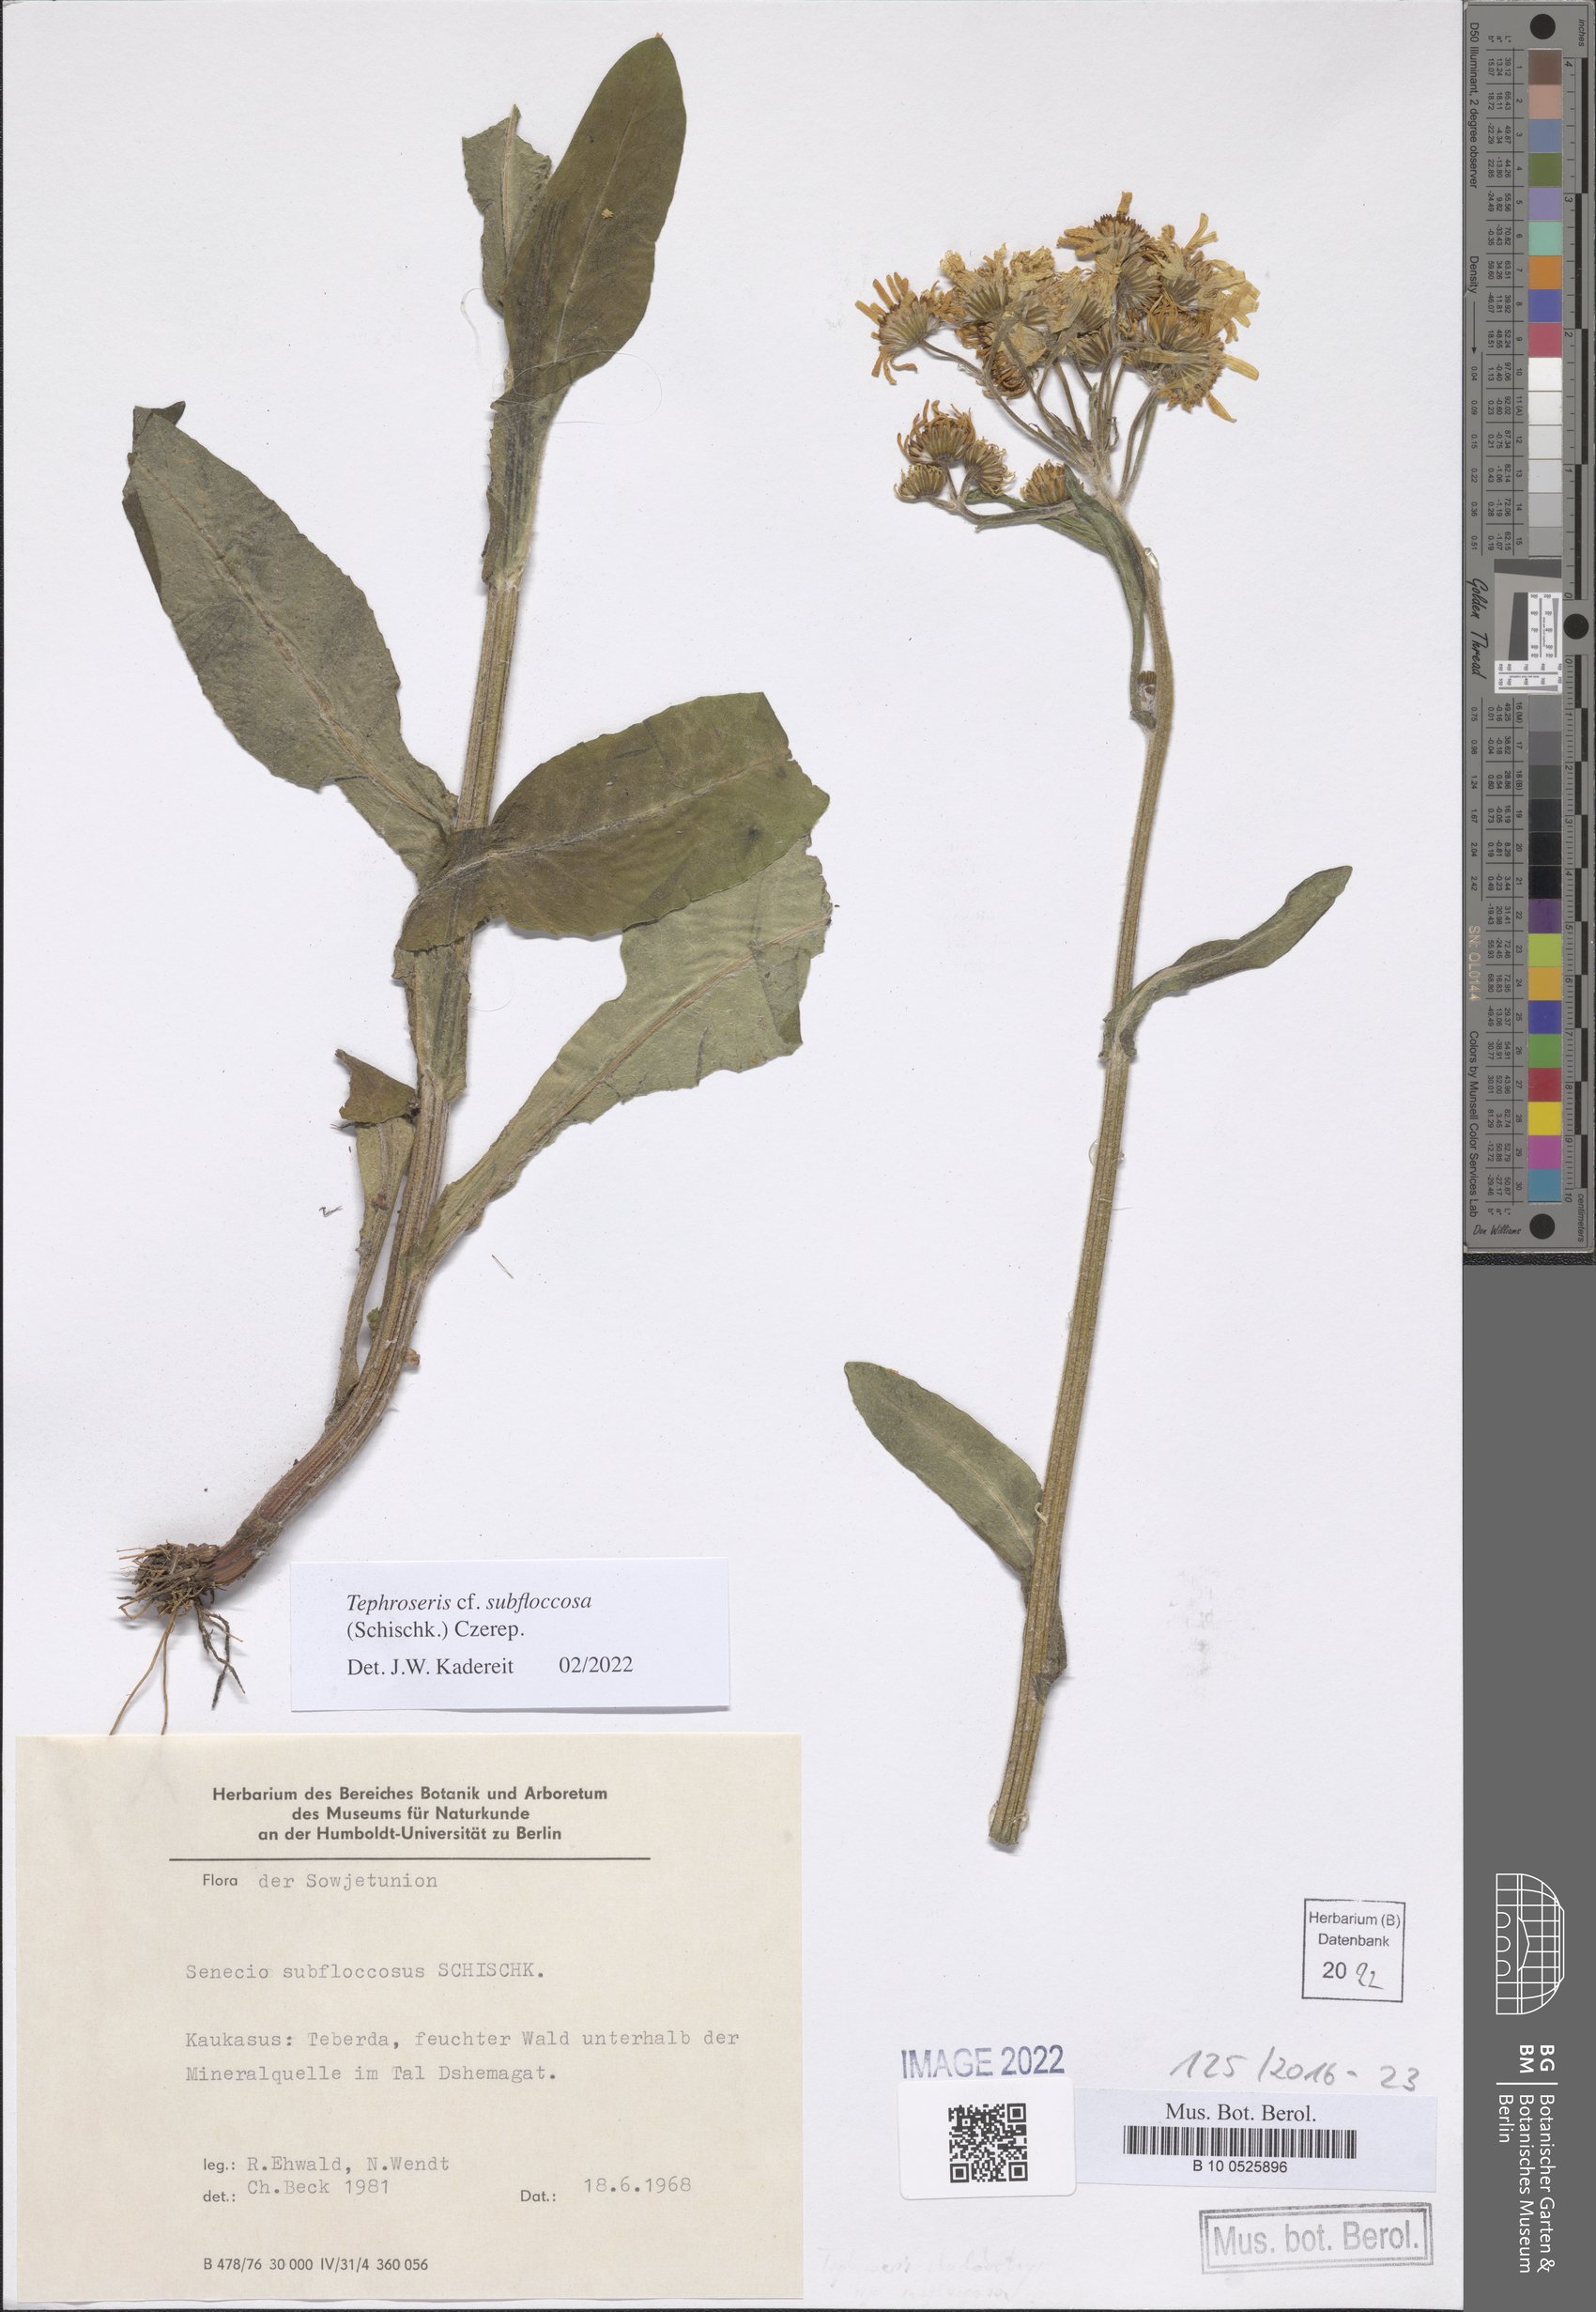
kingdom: Plantae
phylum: Tracheophyta
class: Magnoliopsida
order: Asterales
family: Asteraceae
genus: Tephroseris
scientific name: Tephroseris cladobotrys
